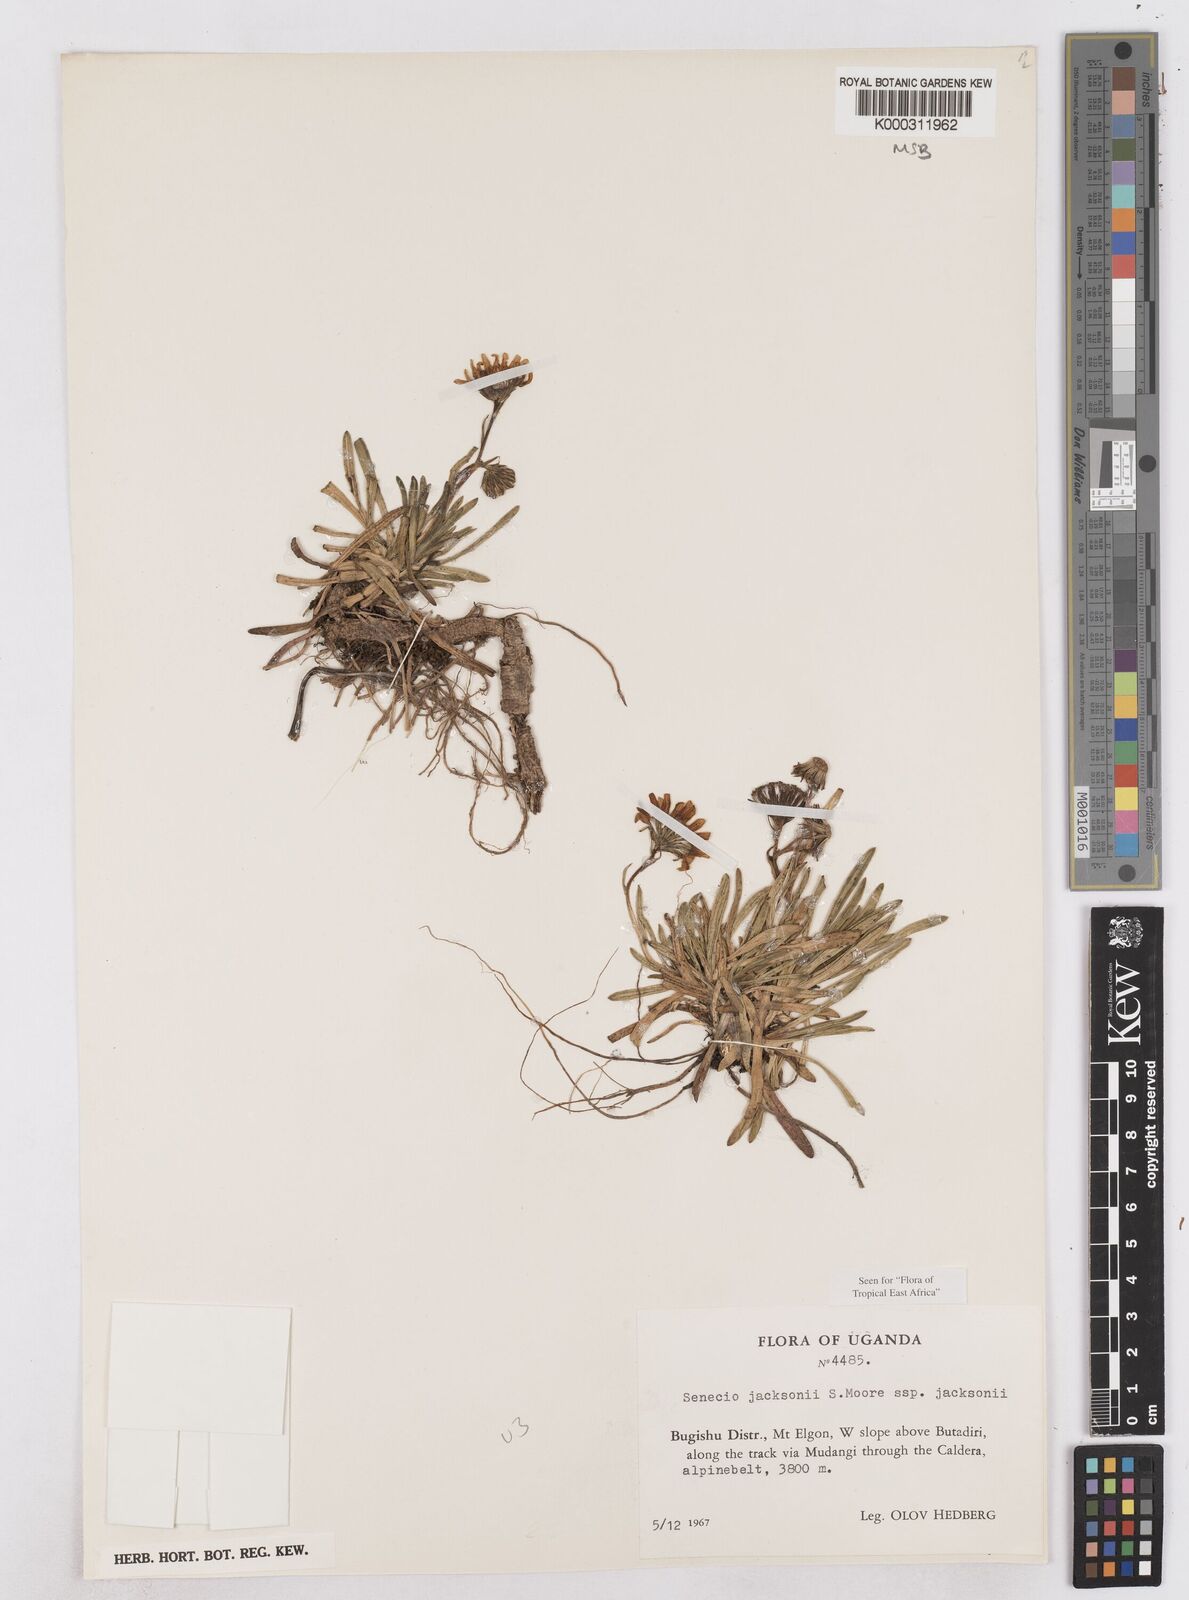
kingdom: Plantae
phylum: Tracheophyta
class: Magnoliopsida
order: Asterales
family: Asteraceae
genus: Senecio
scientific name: Senecio jacksonii
